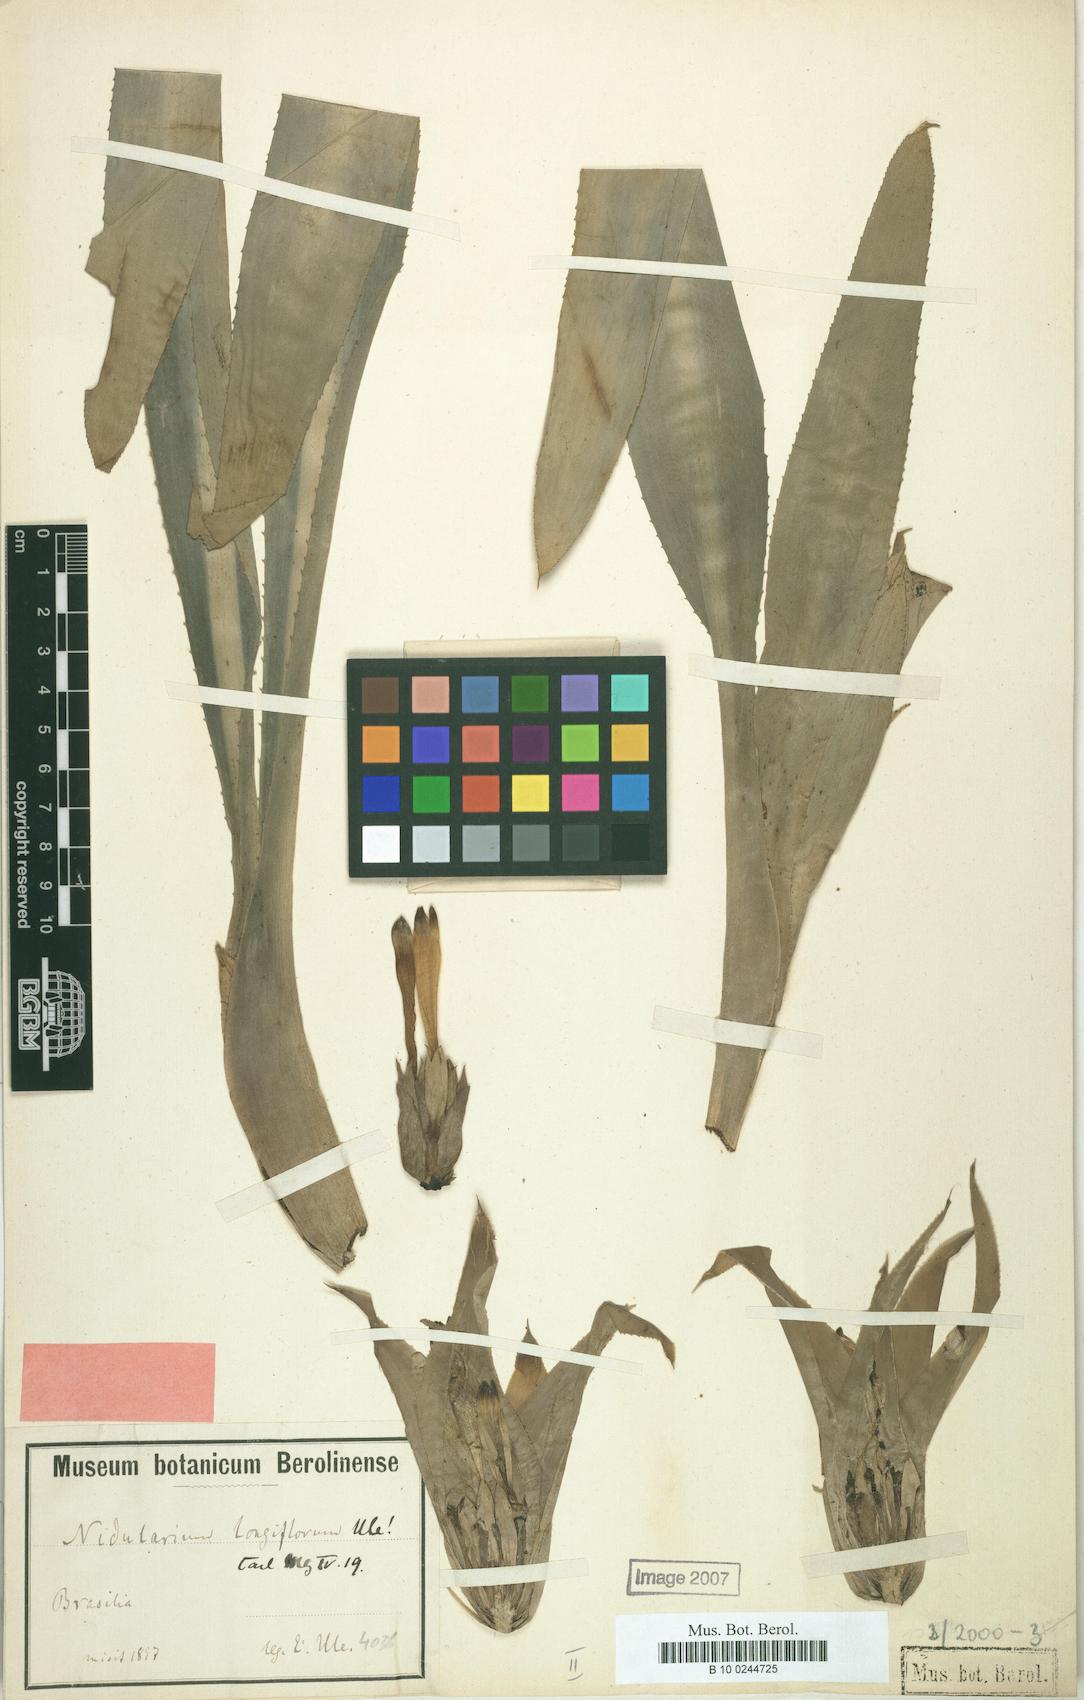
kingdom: Plantae
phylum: Tracheophyta
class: Liliopsida
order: Poales
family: Bromeliaceae
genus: Nidularium
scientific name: Nidularium longiflorum
